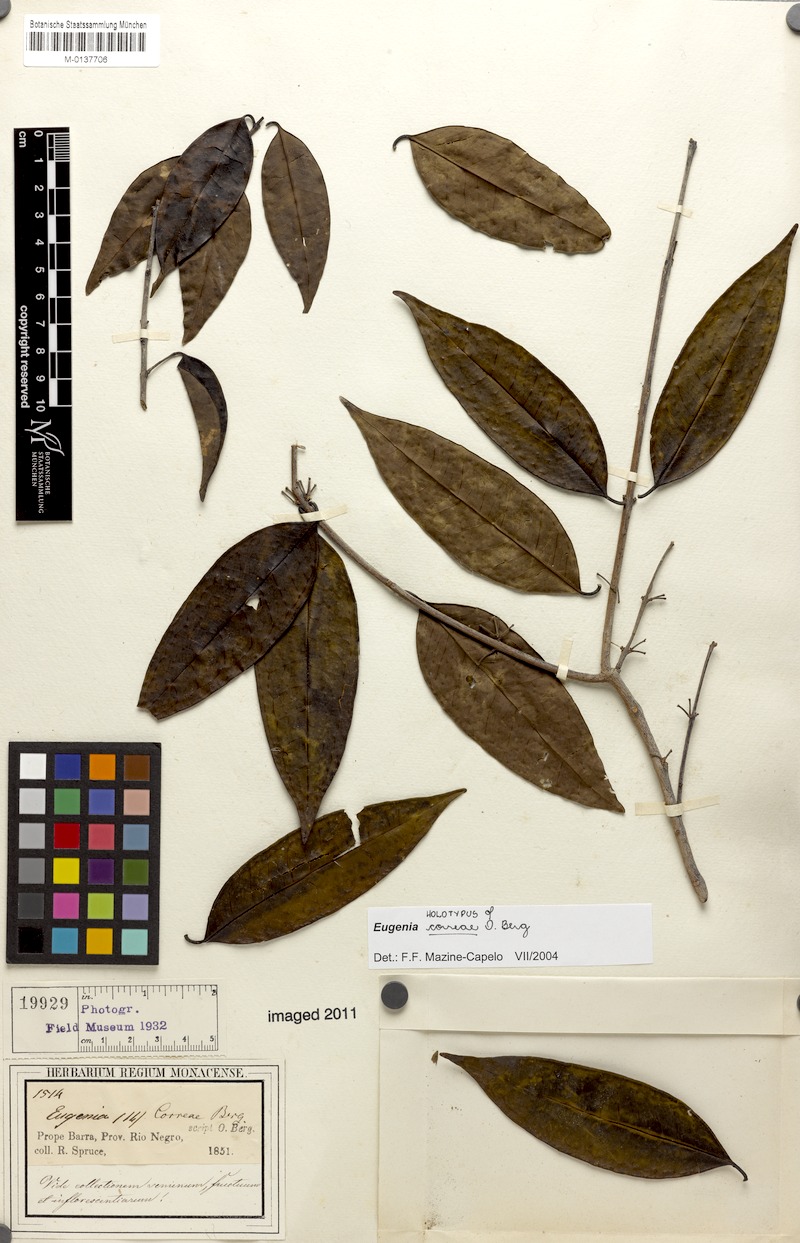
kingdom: Plantae
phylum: Tracheophyta
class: Magnoliopsida
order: Myrtales
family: Myrtaceae
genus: Eugenia
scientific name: Eugenia lambertiana
